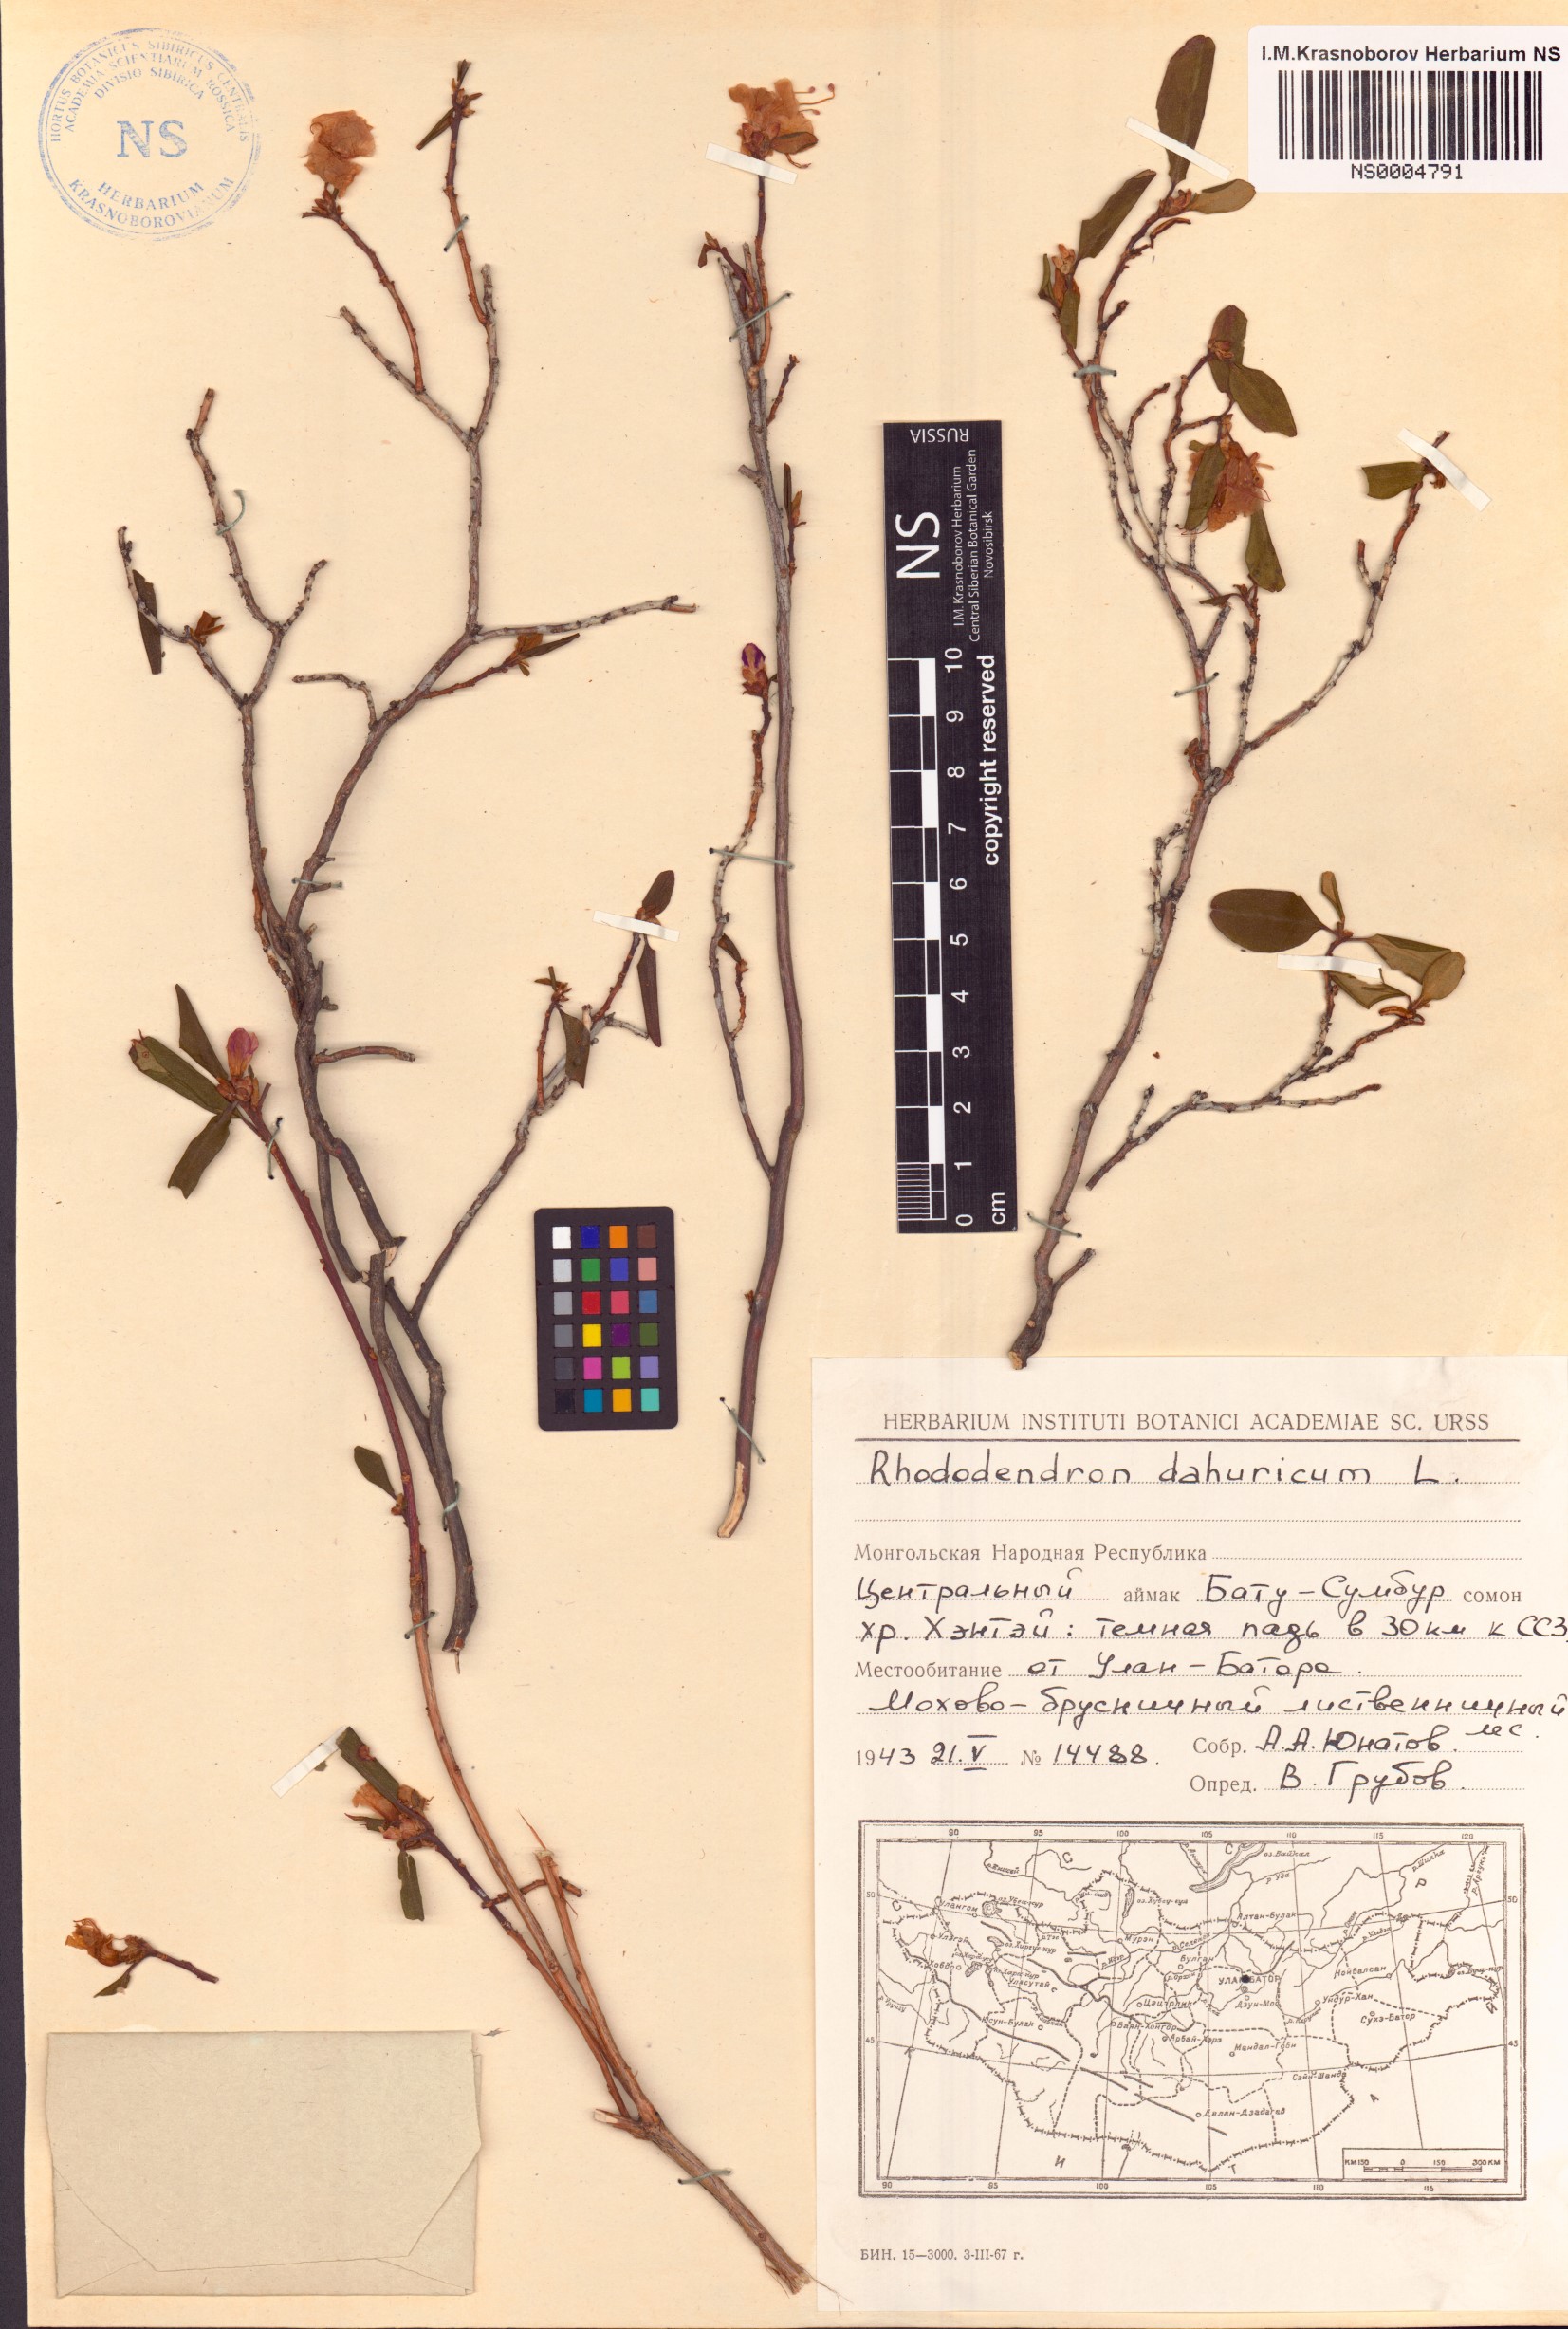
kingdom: Plantae
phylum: Tracheophyta
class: Magnoliopsida
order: Ericales
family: Ericaceae
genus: Rhododendron
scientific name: Rhododendron dauricum
